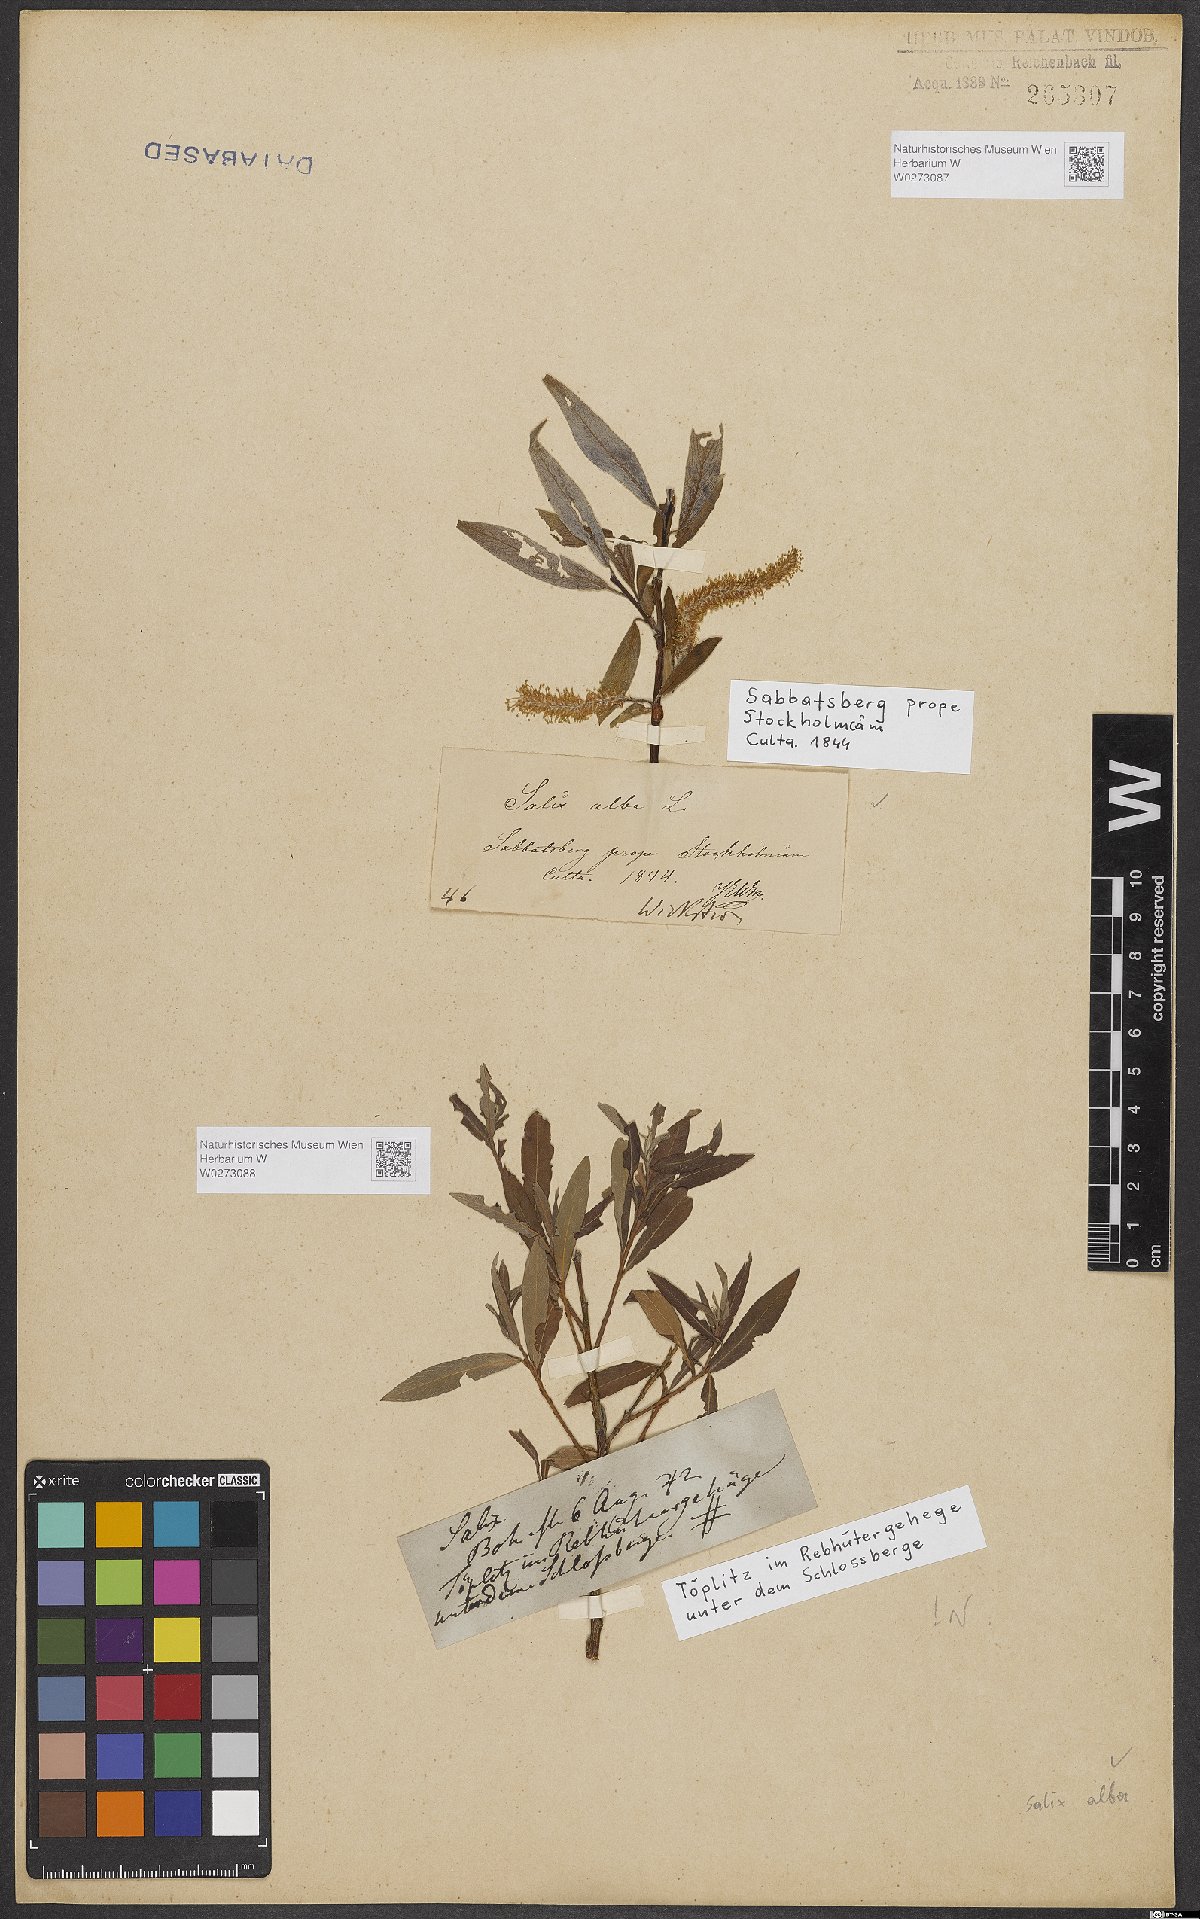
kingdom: Plantae
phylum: Tracheophyta
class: Magnoliopsida
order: Malpighiales
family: Salicaceae
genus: Salix
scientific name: Salix alba
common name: White willow
